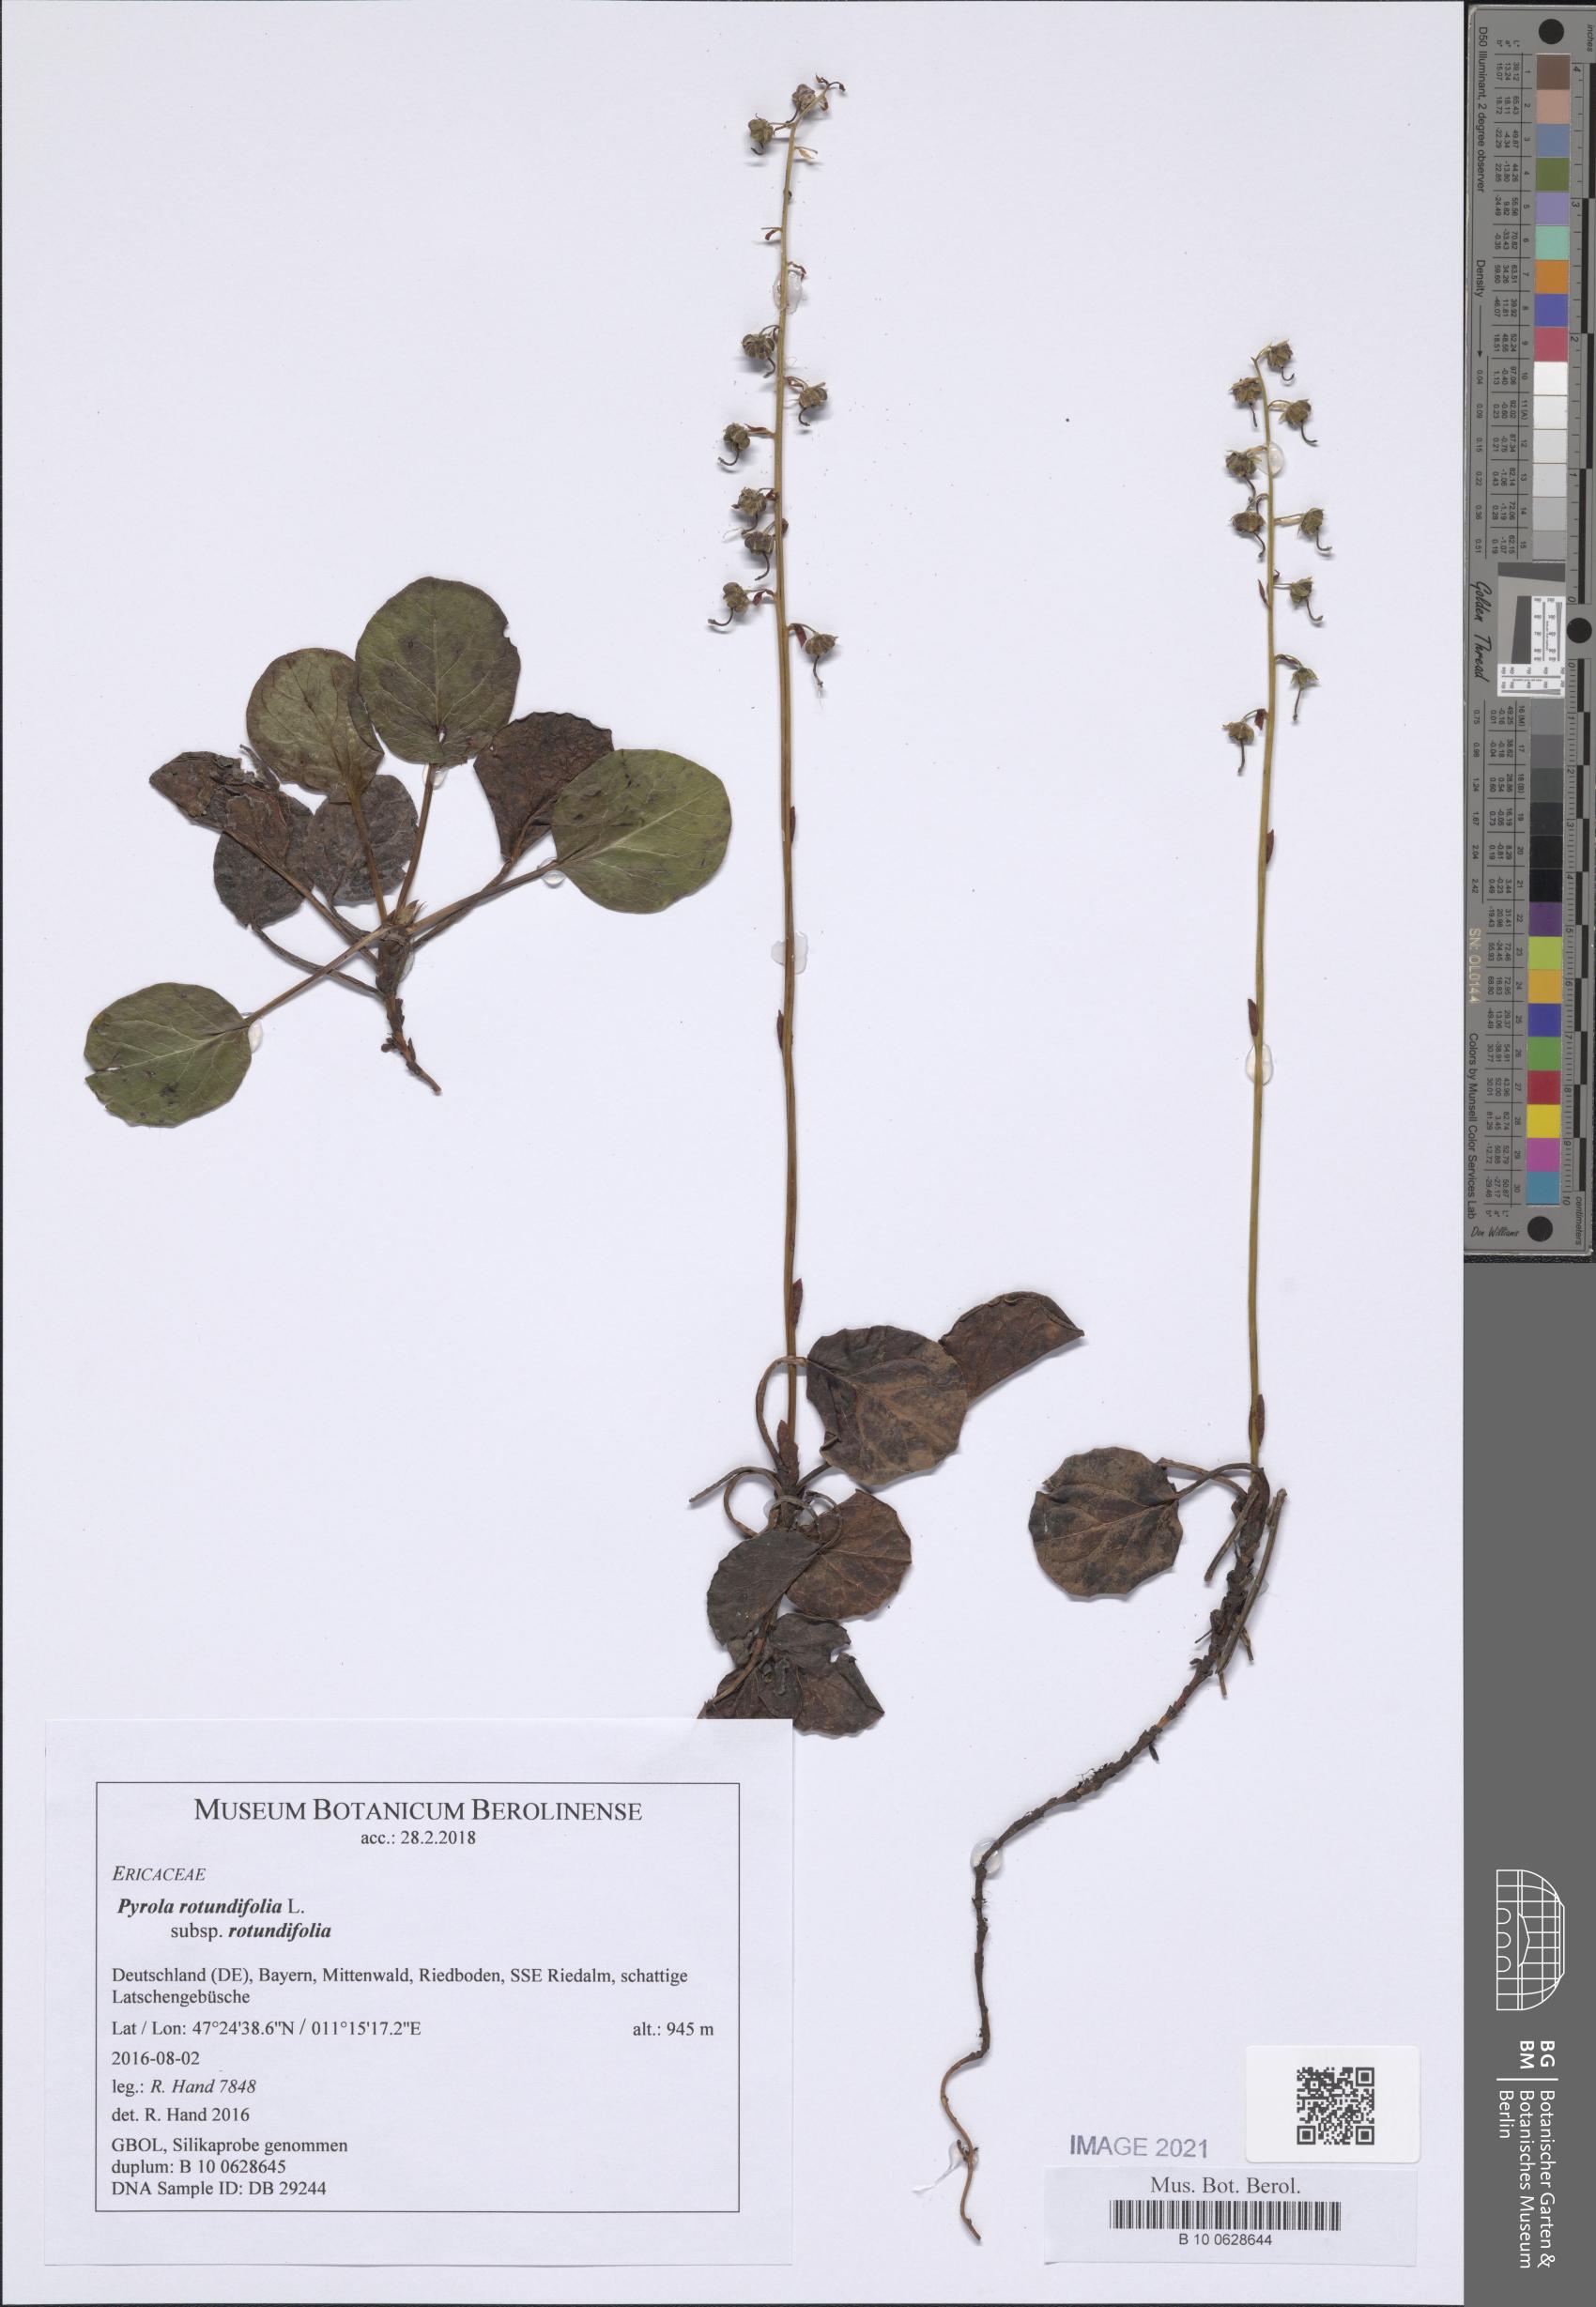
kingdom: Plantae
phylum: Tracheophyta
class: Magnoliopsida
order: Ericales
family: Ericaceae
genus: Pyrola
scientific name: Pyrola rotundifolia
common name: Round-leaved wintergreen
